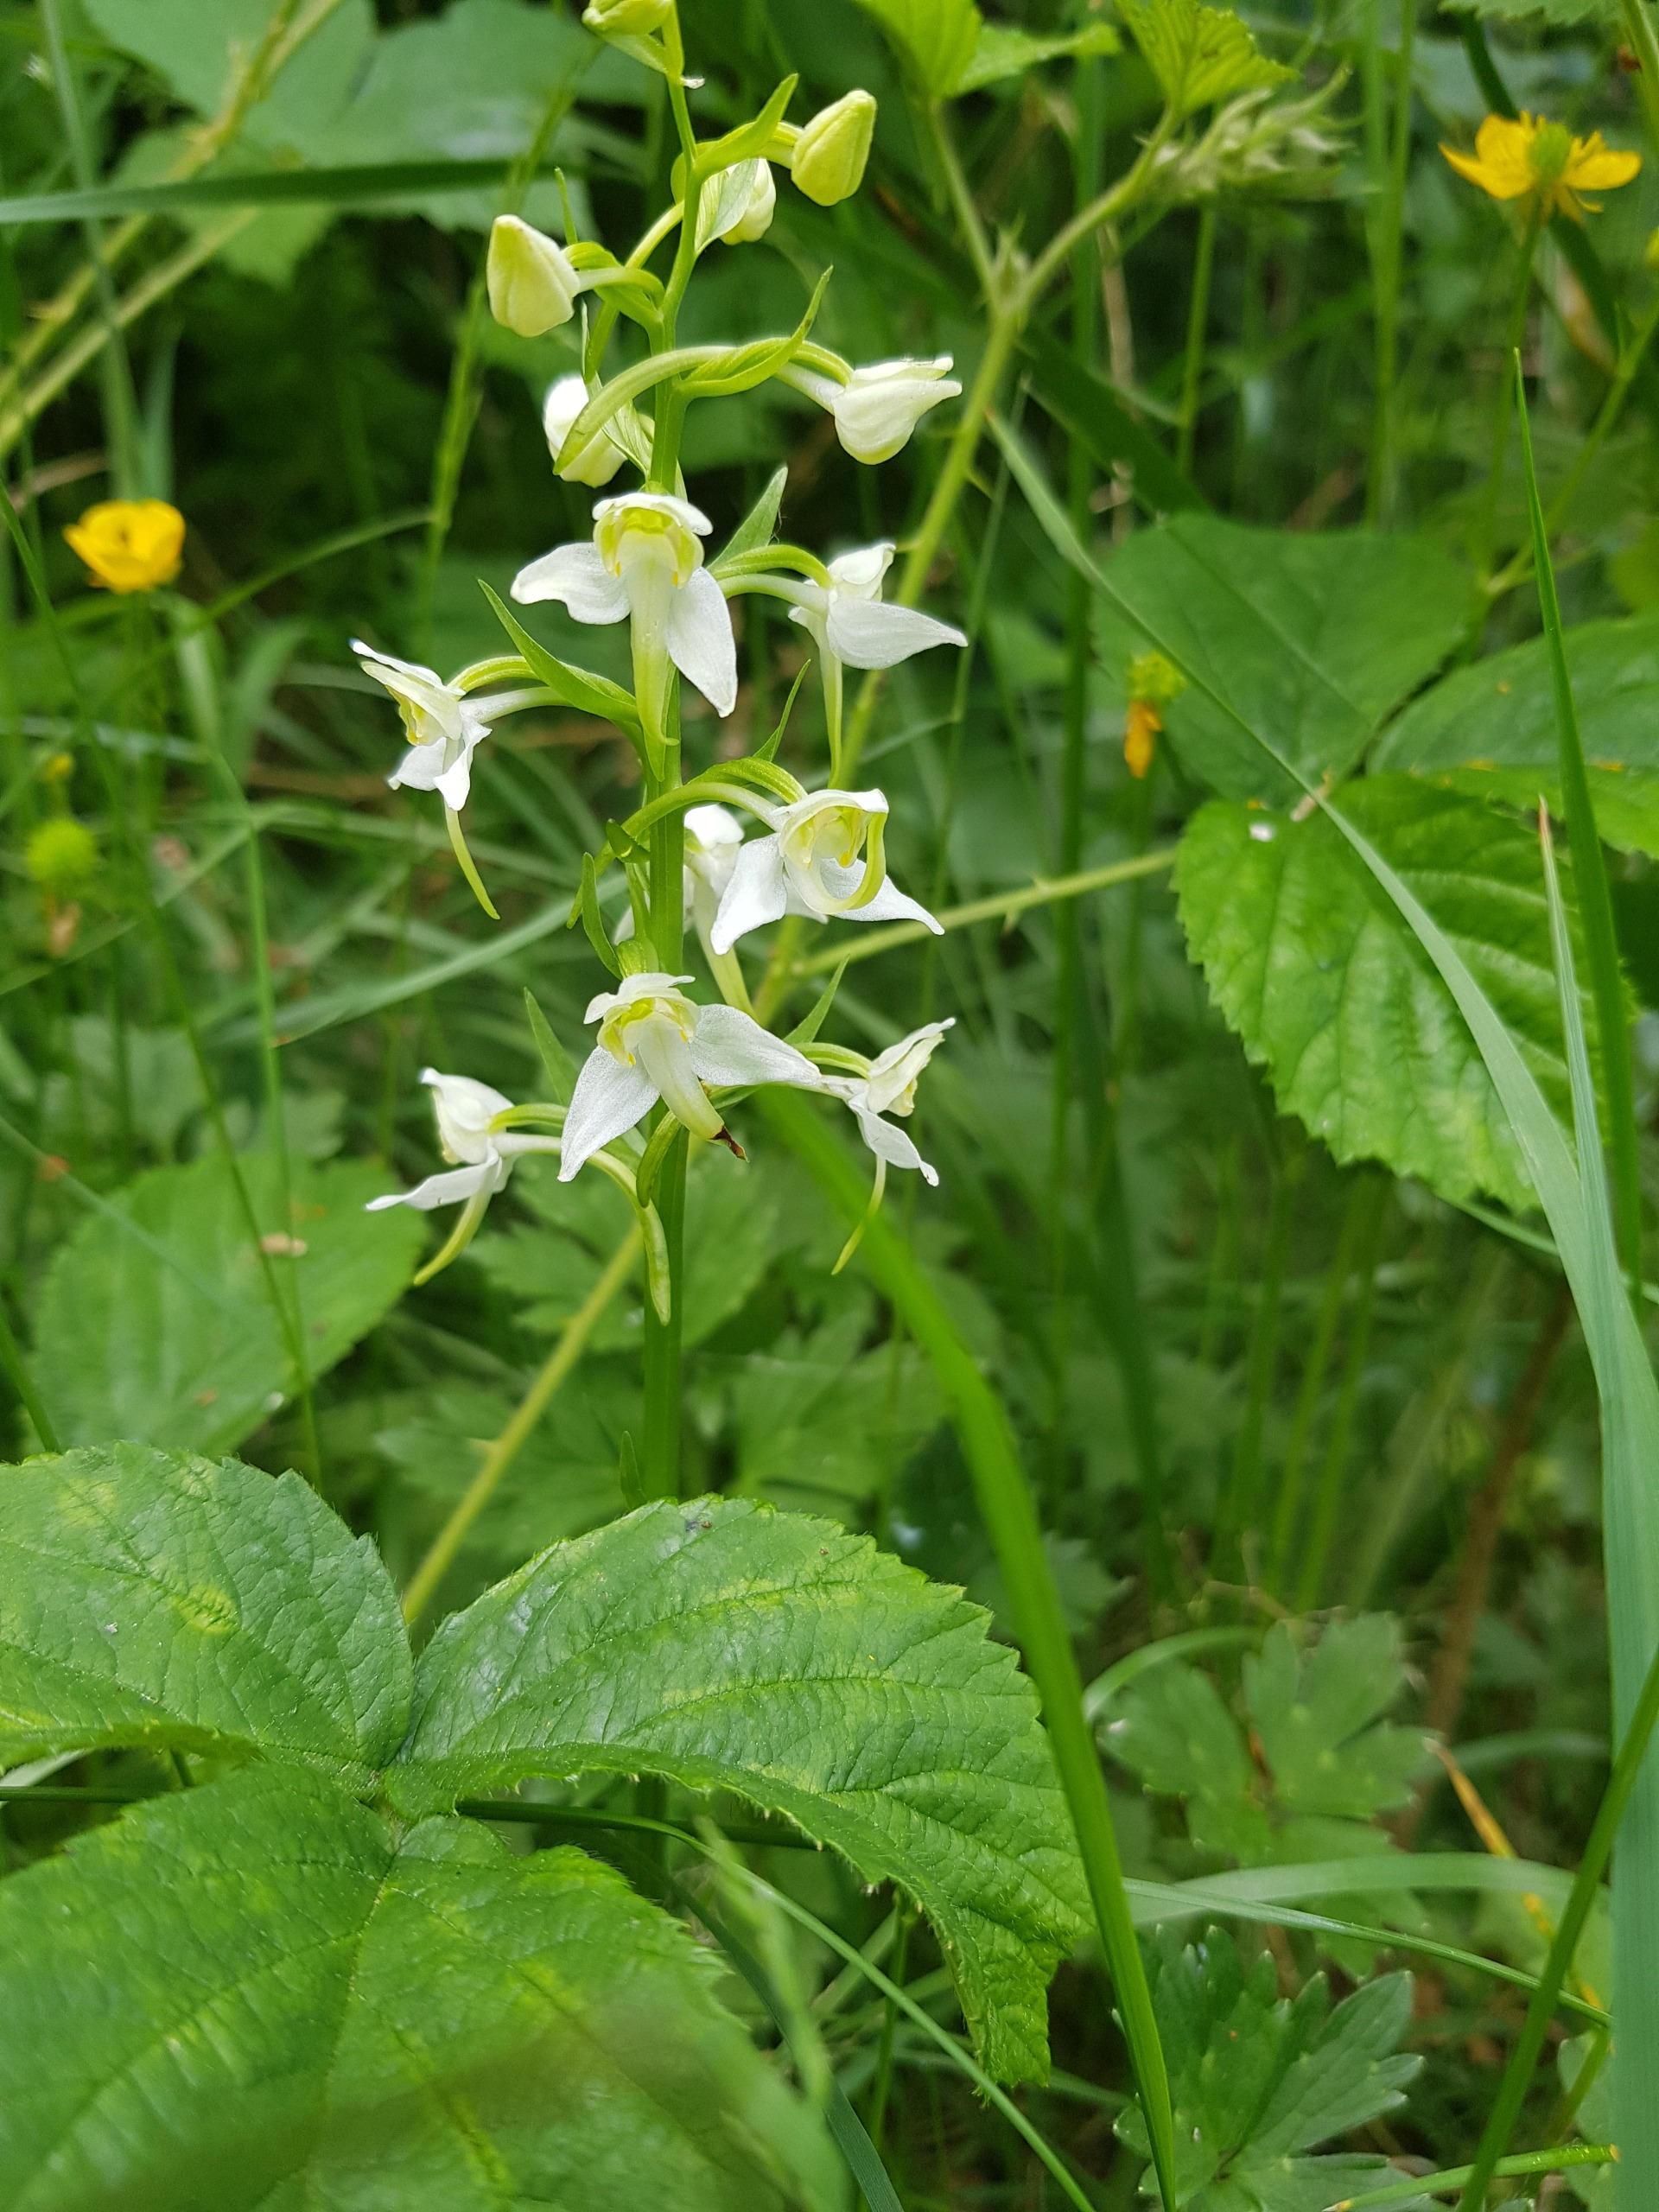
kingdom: Plantae
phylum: Tracheophyta
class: Liliopsida
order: Asparagales
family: Orchidaceae
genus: Platanthera
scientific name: Platanthera chlorantha
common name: Skov-gøgelilje
